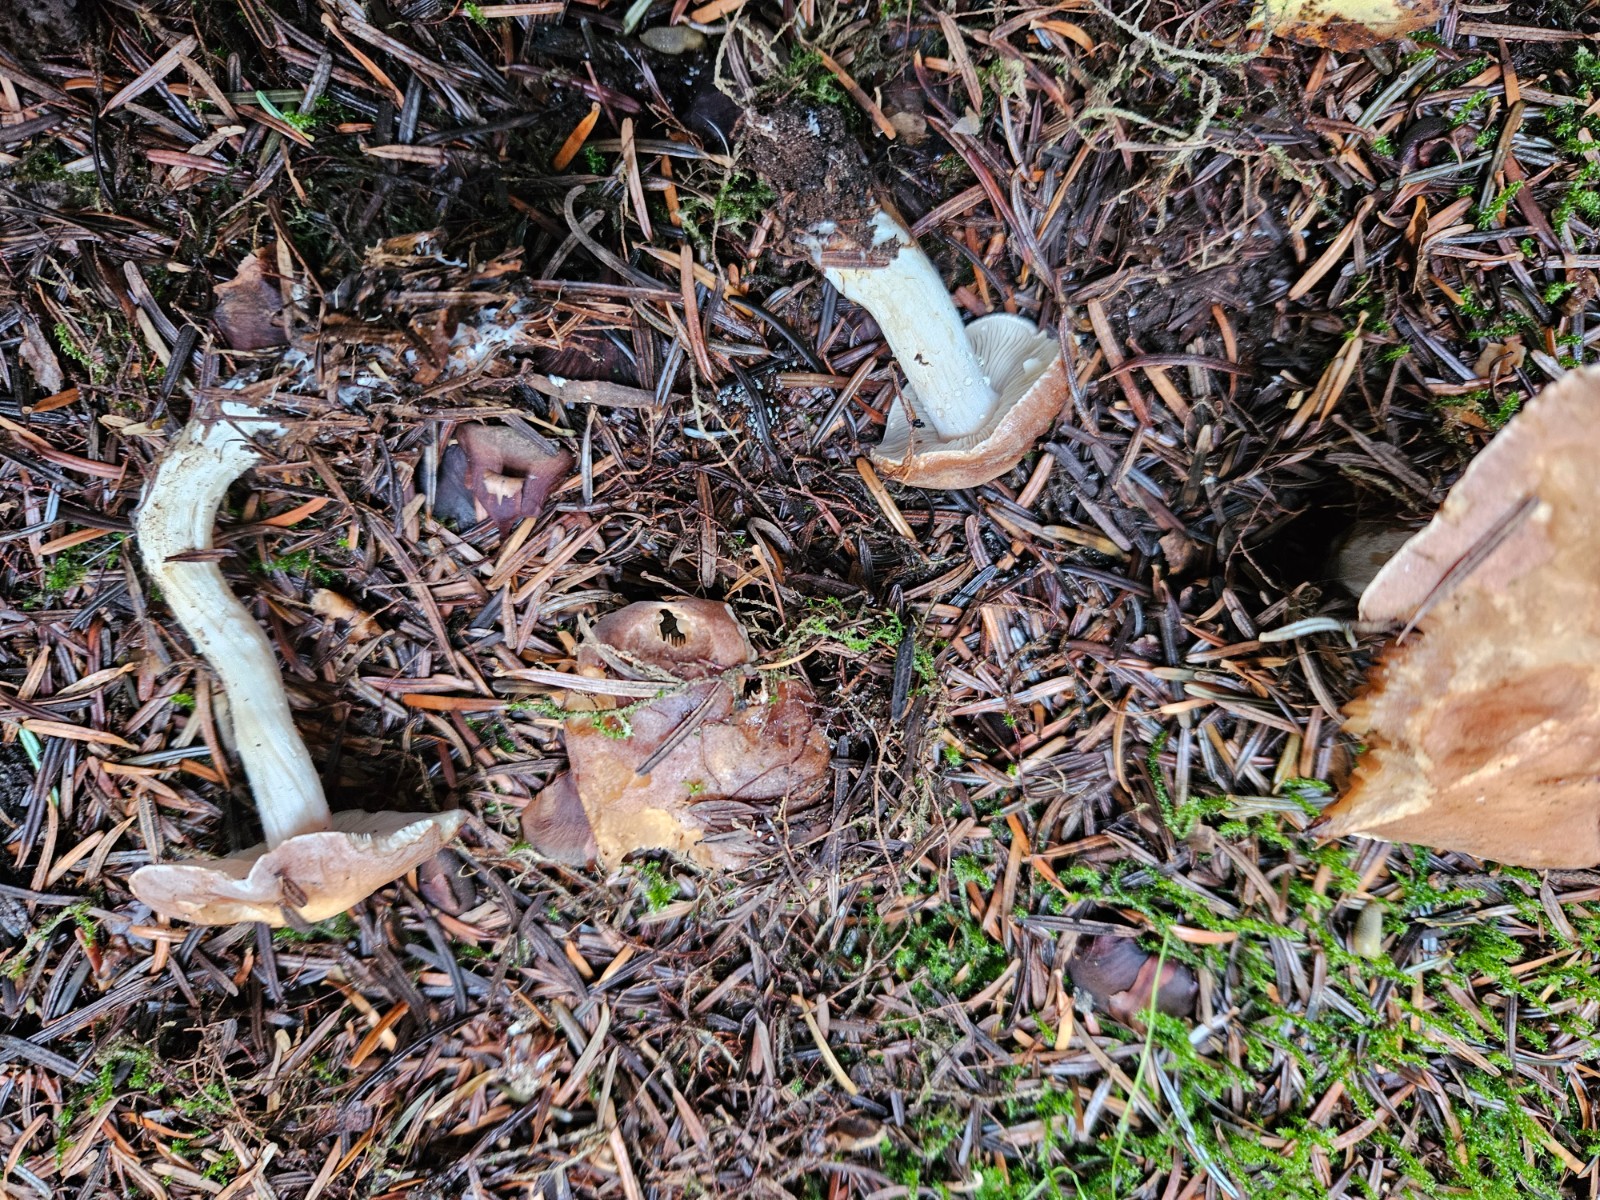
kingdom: Fungi
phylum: Basidiomycota
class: Agaricomycetes
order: Agaricales
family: Hymenogastraceae
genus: Hebeloma
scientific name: Hebeloma theobrominum
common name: rødbrun tåreblad
